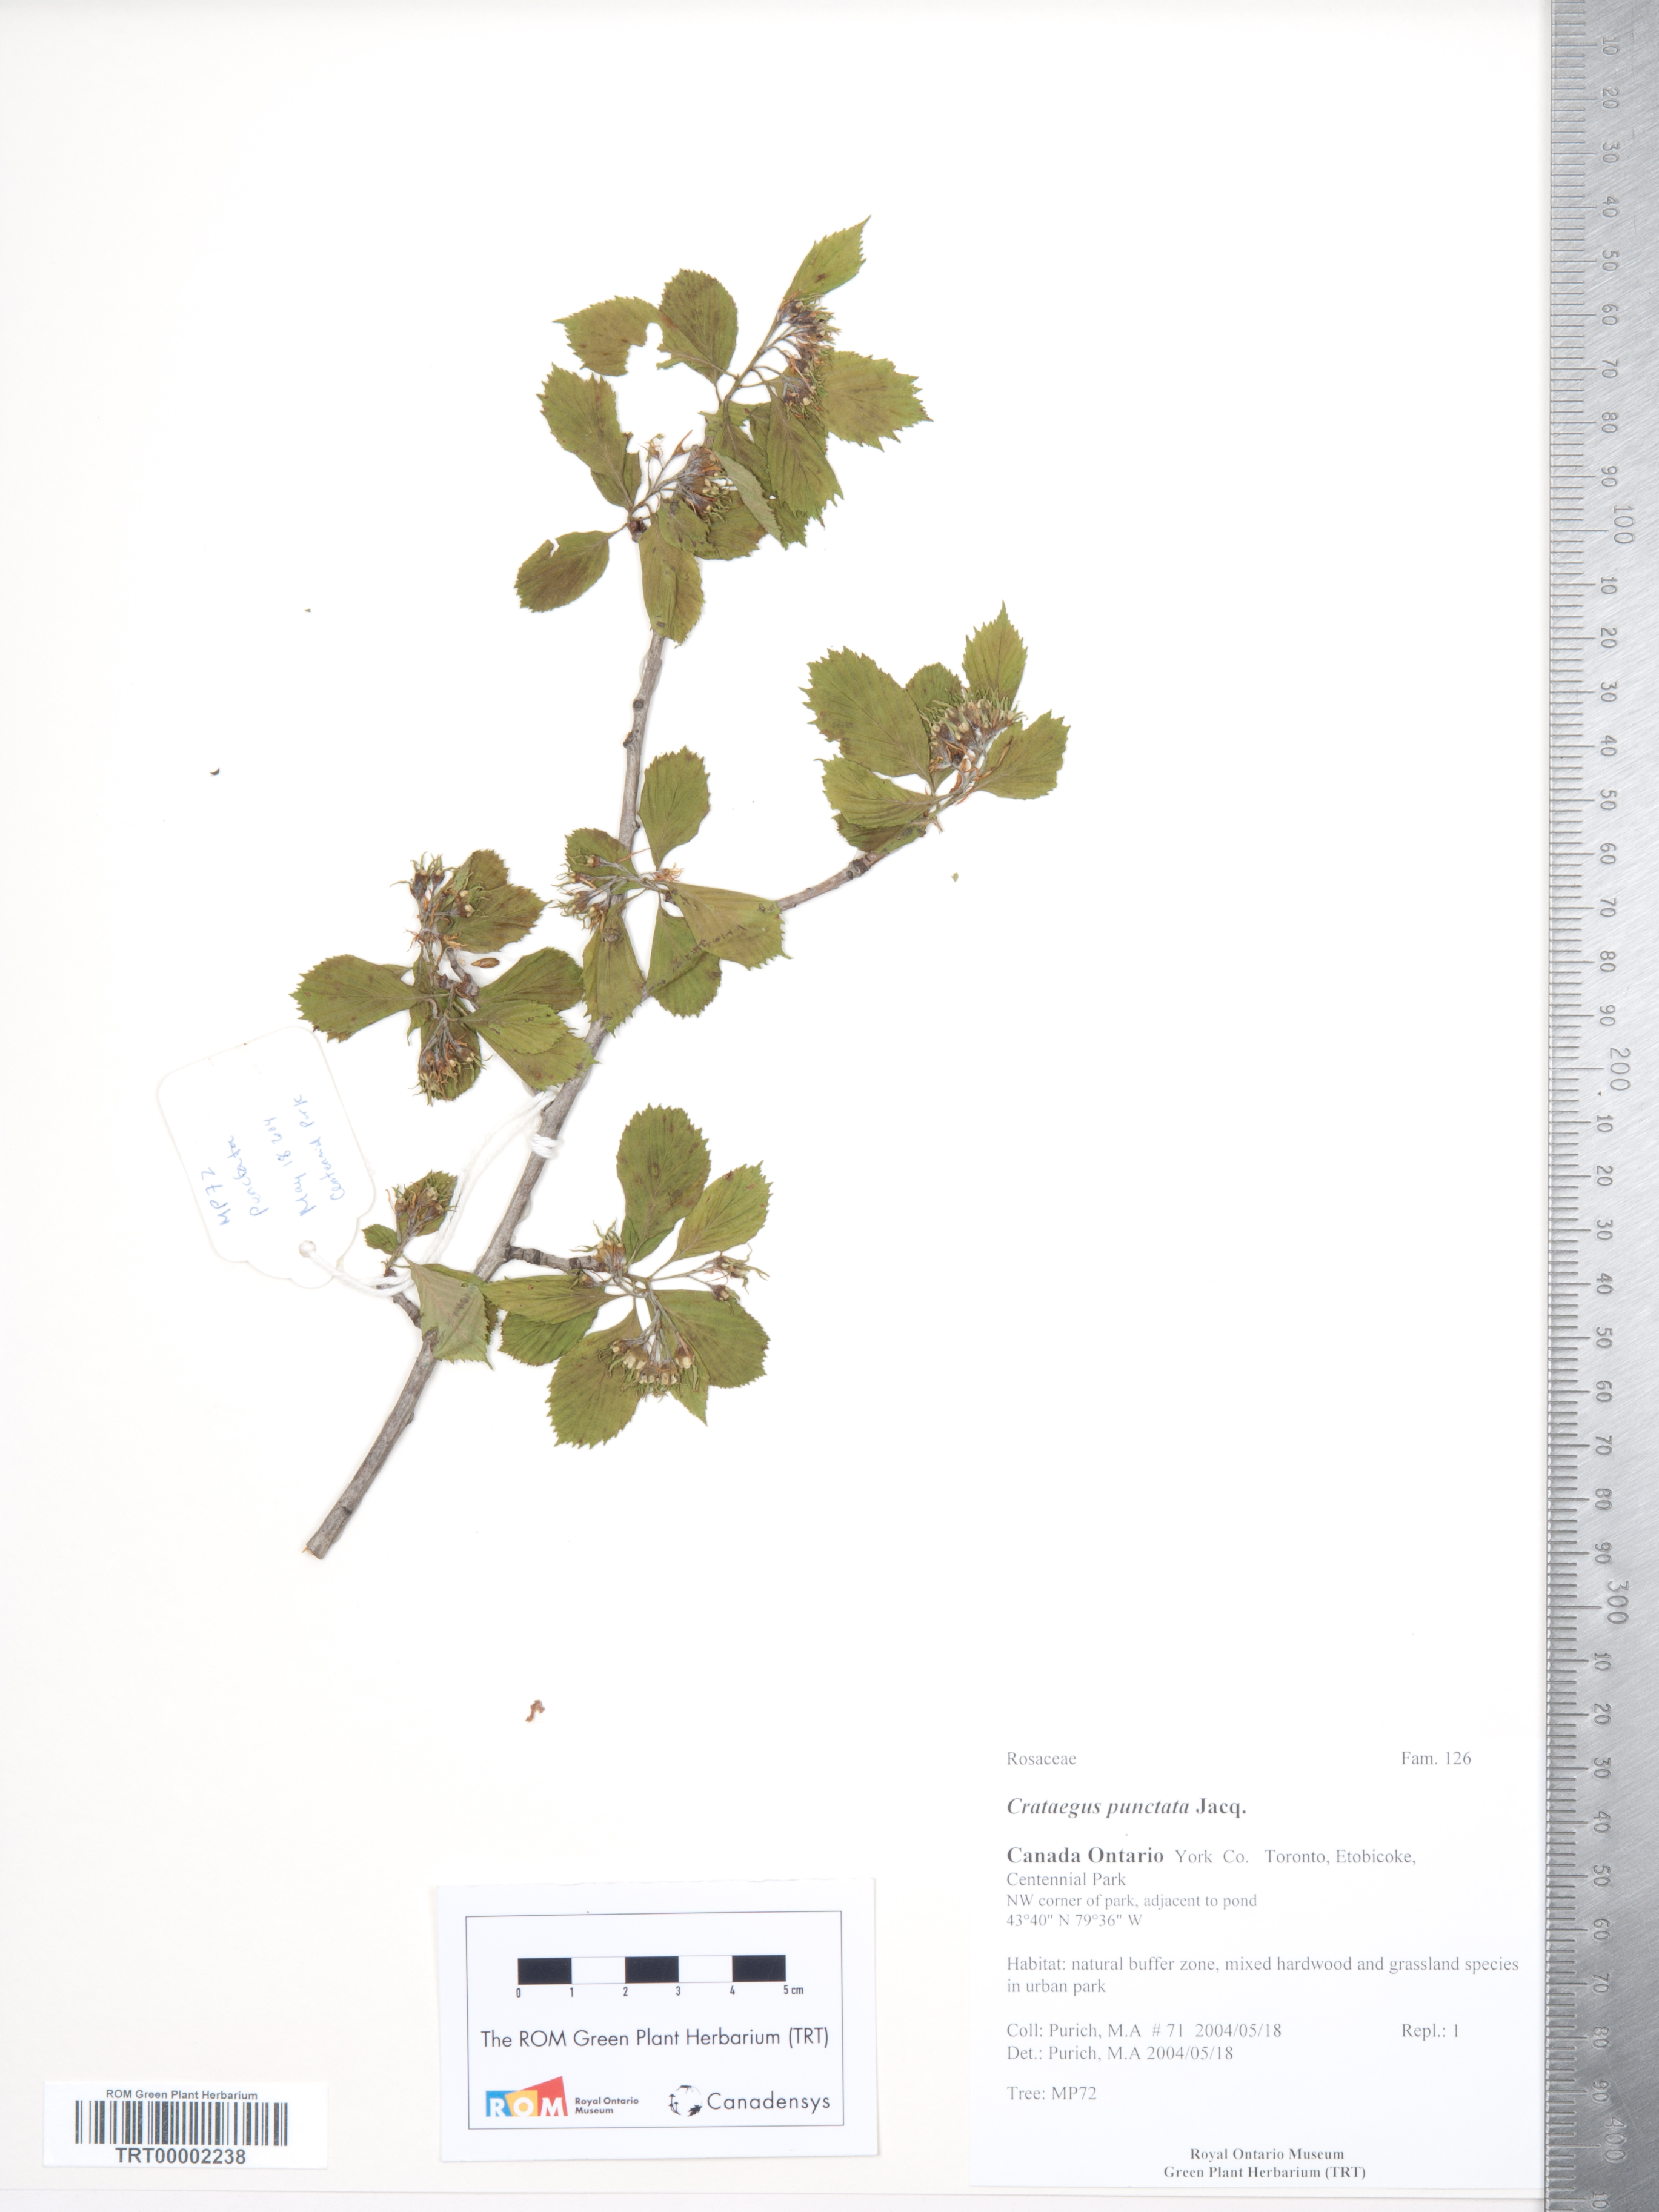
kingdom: Plantae
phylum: Tracheophyta
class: Magnoliopsida
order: Rosales
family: Rosaceae
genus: Crataegus
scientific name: Crataegus punctata
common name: Dotted hawthorn
